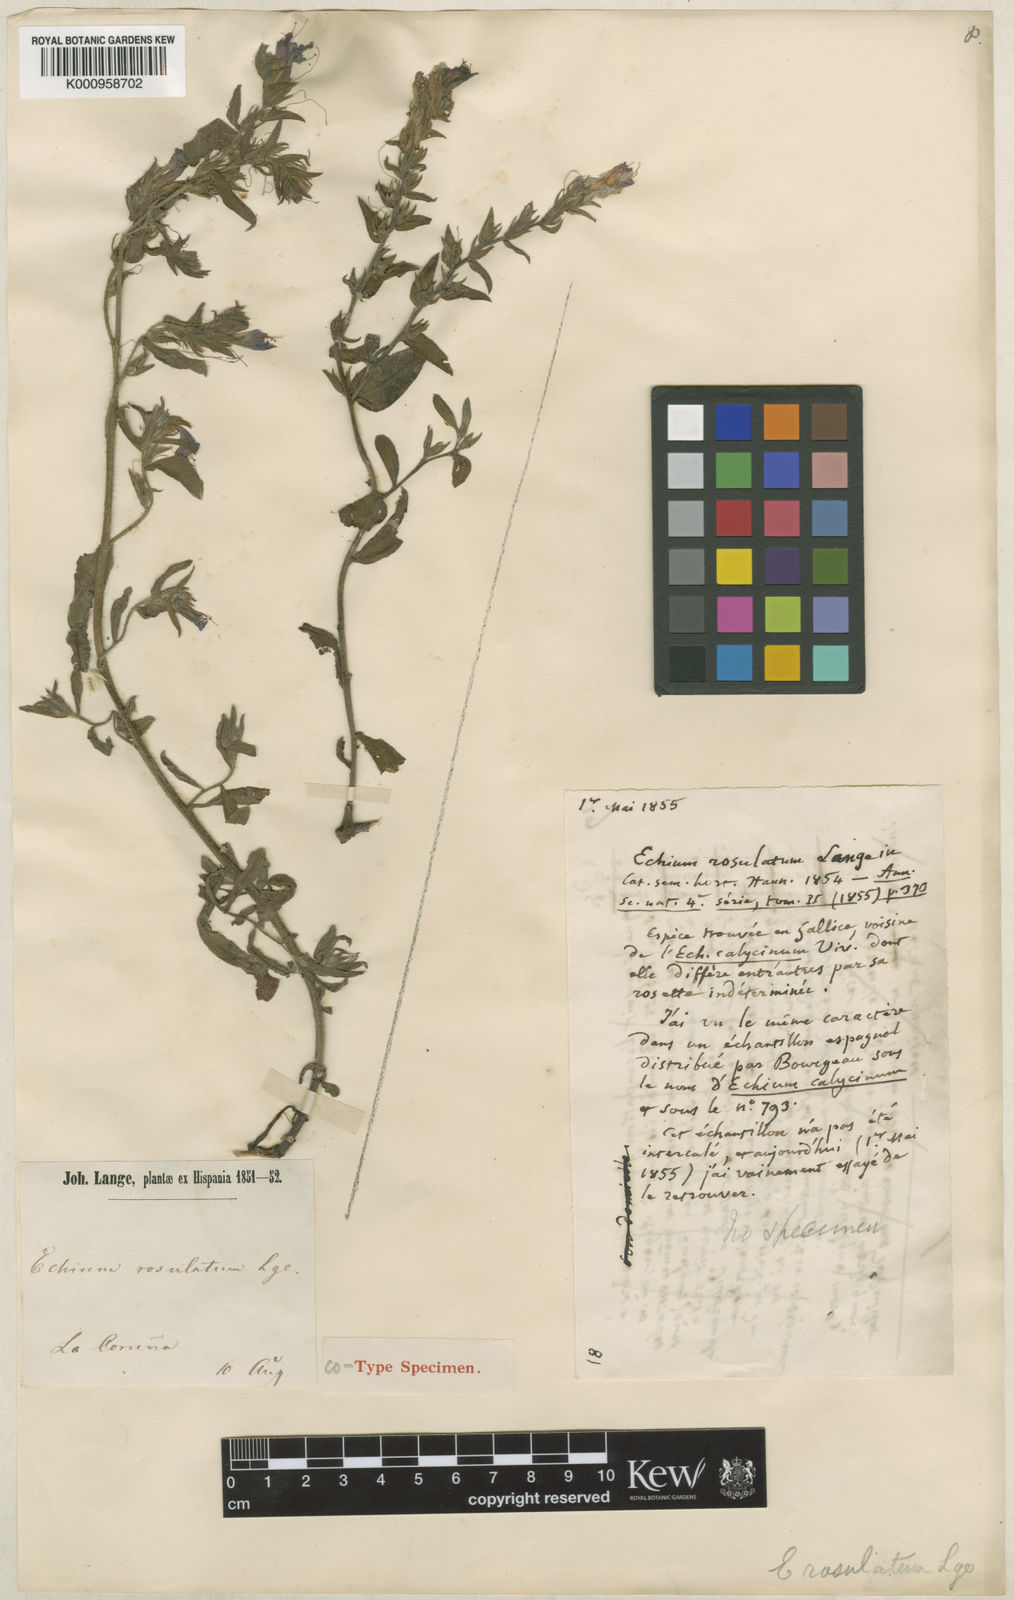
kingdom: Plantae
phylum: Tracheophyta
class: Magnoliopsida
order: Boraginales
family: Boraginaceae
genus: Echium
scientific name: Echium rosulatum
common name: Lax viper's-bugloss
